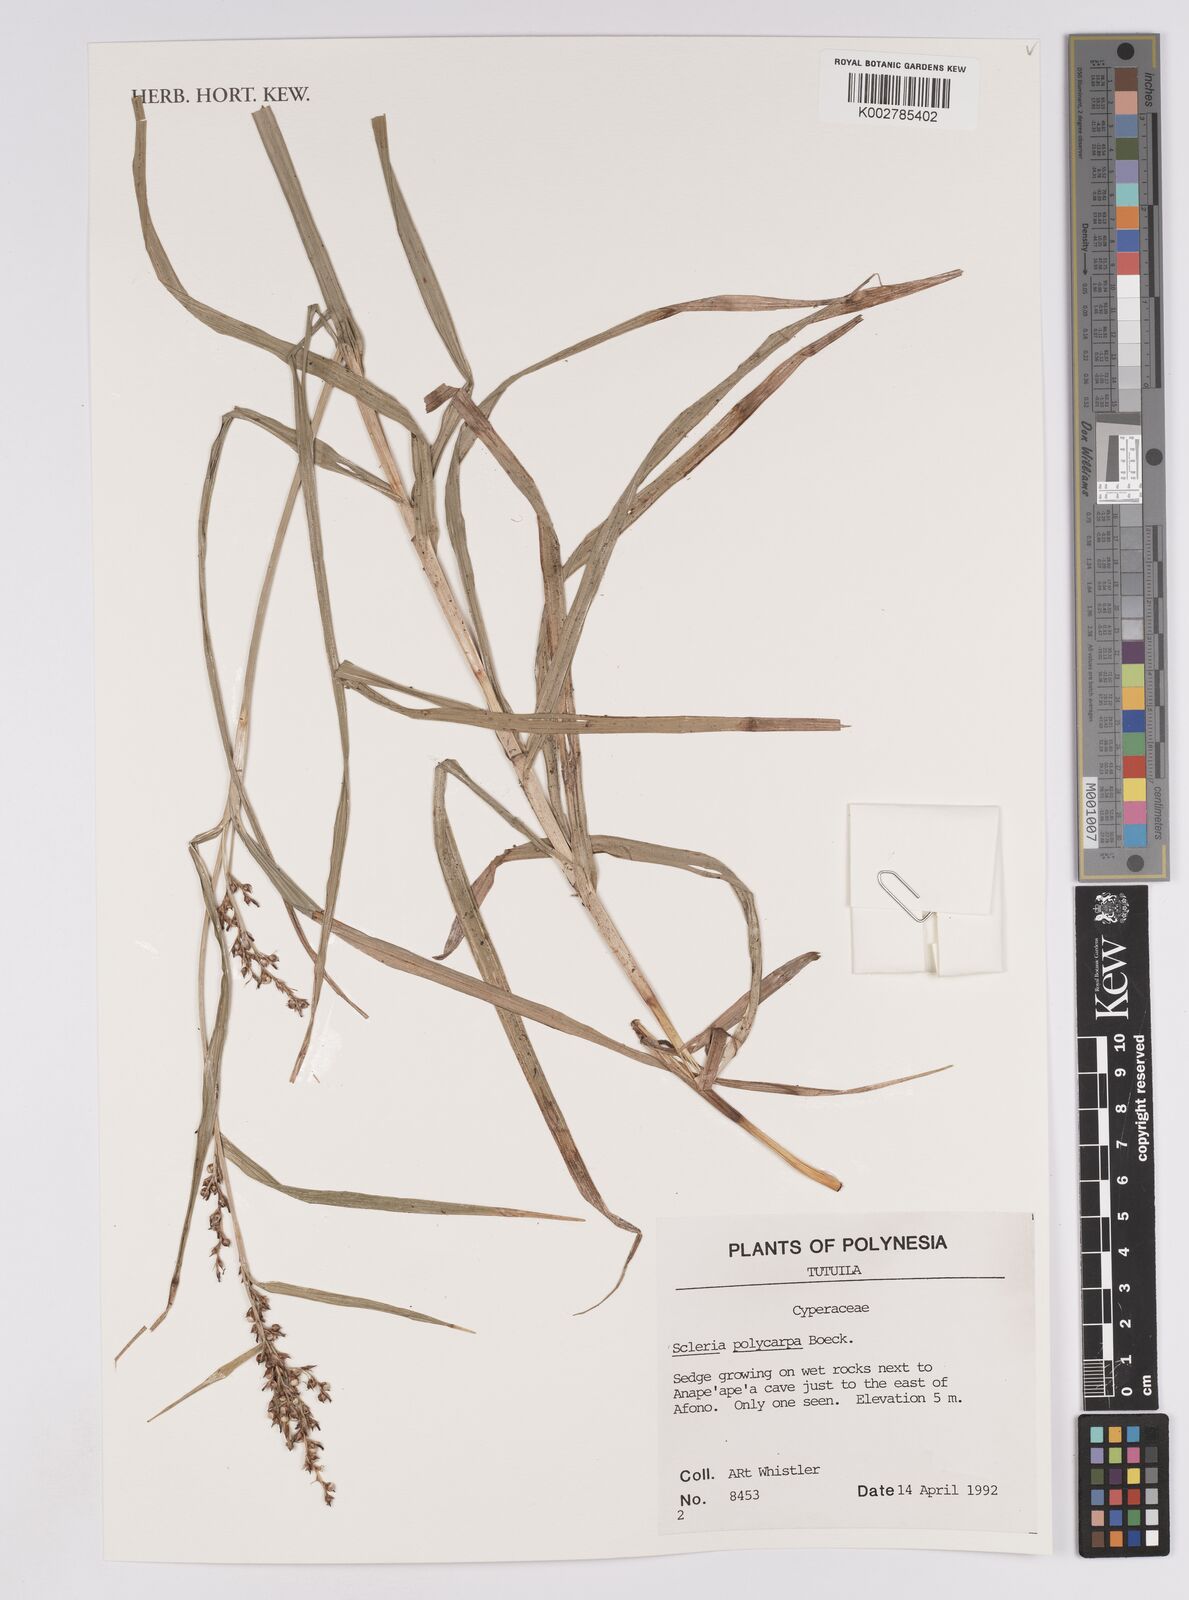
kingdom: Plantae
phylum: Tracheophyta
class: Liliopsida
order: Poales
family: Cyperaceae
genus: Scleria
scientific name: Scleria polycarpa
